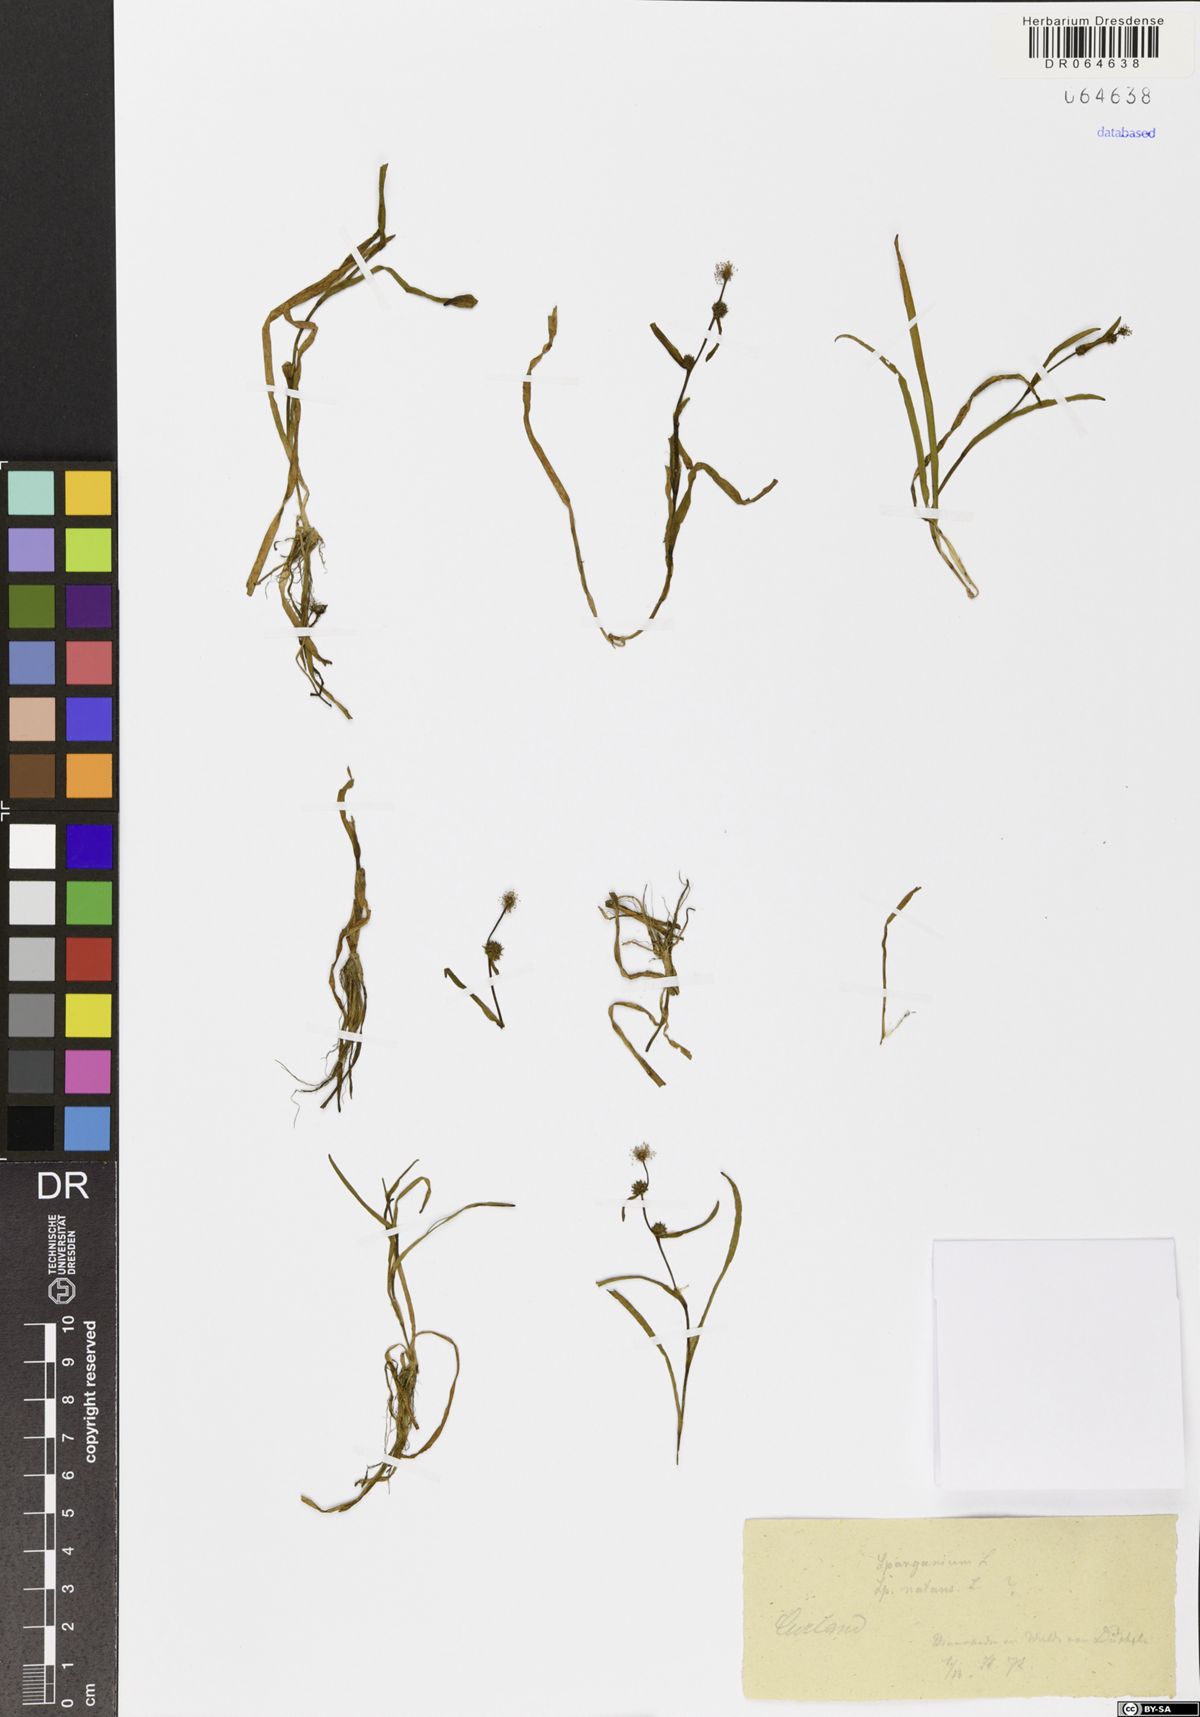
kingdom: Plantae
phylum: Tracheophyta
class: Liliopsida
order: Poales
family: Typhaceae
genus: Sparganium
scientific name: Sparganium natans
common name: Least bur-reed
